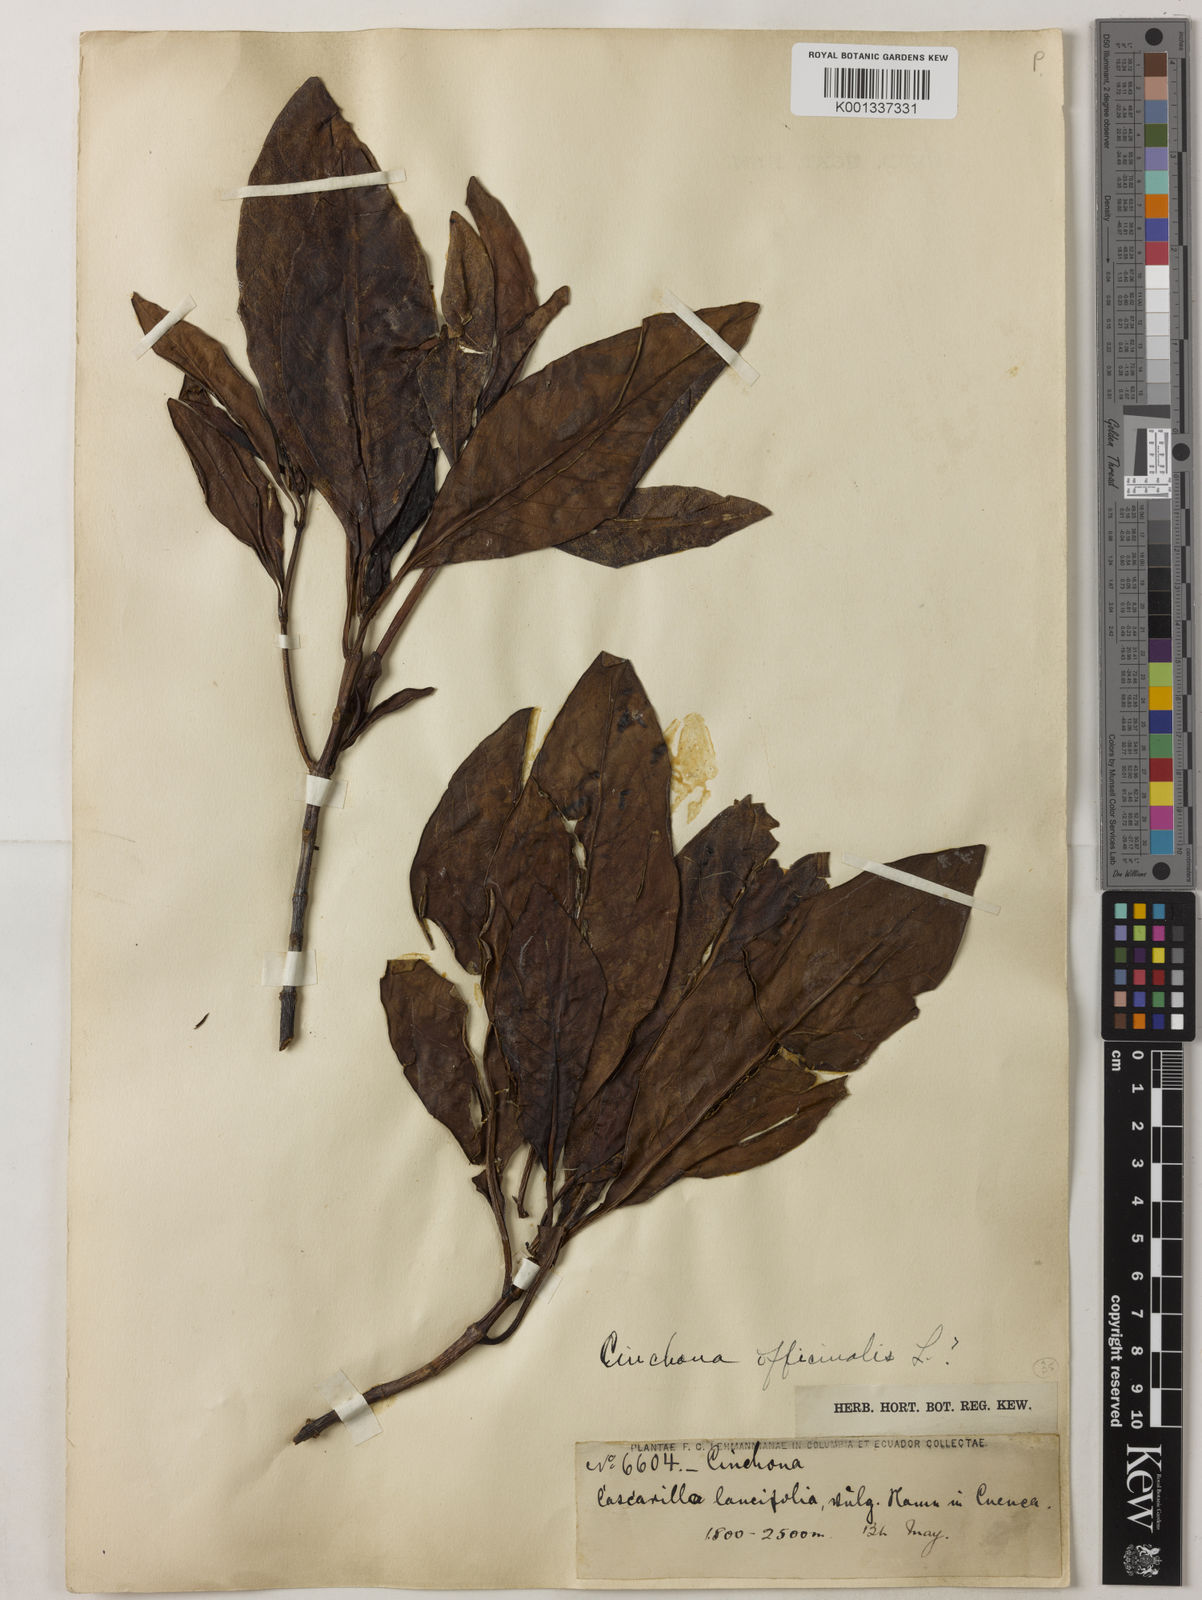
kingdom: Plantae
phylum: Tracheophyta
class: Magnoliopsida
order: Gentianales
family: Rubiaceae
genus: Cinchona
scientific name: Cinchona officinalis
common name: Lojabark
